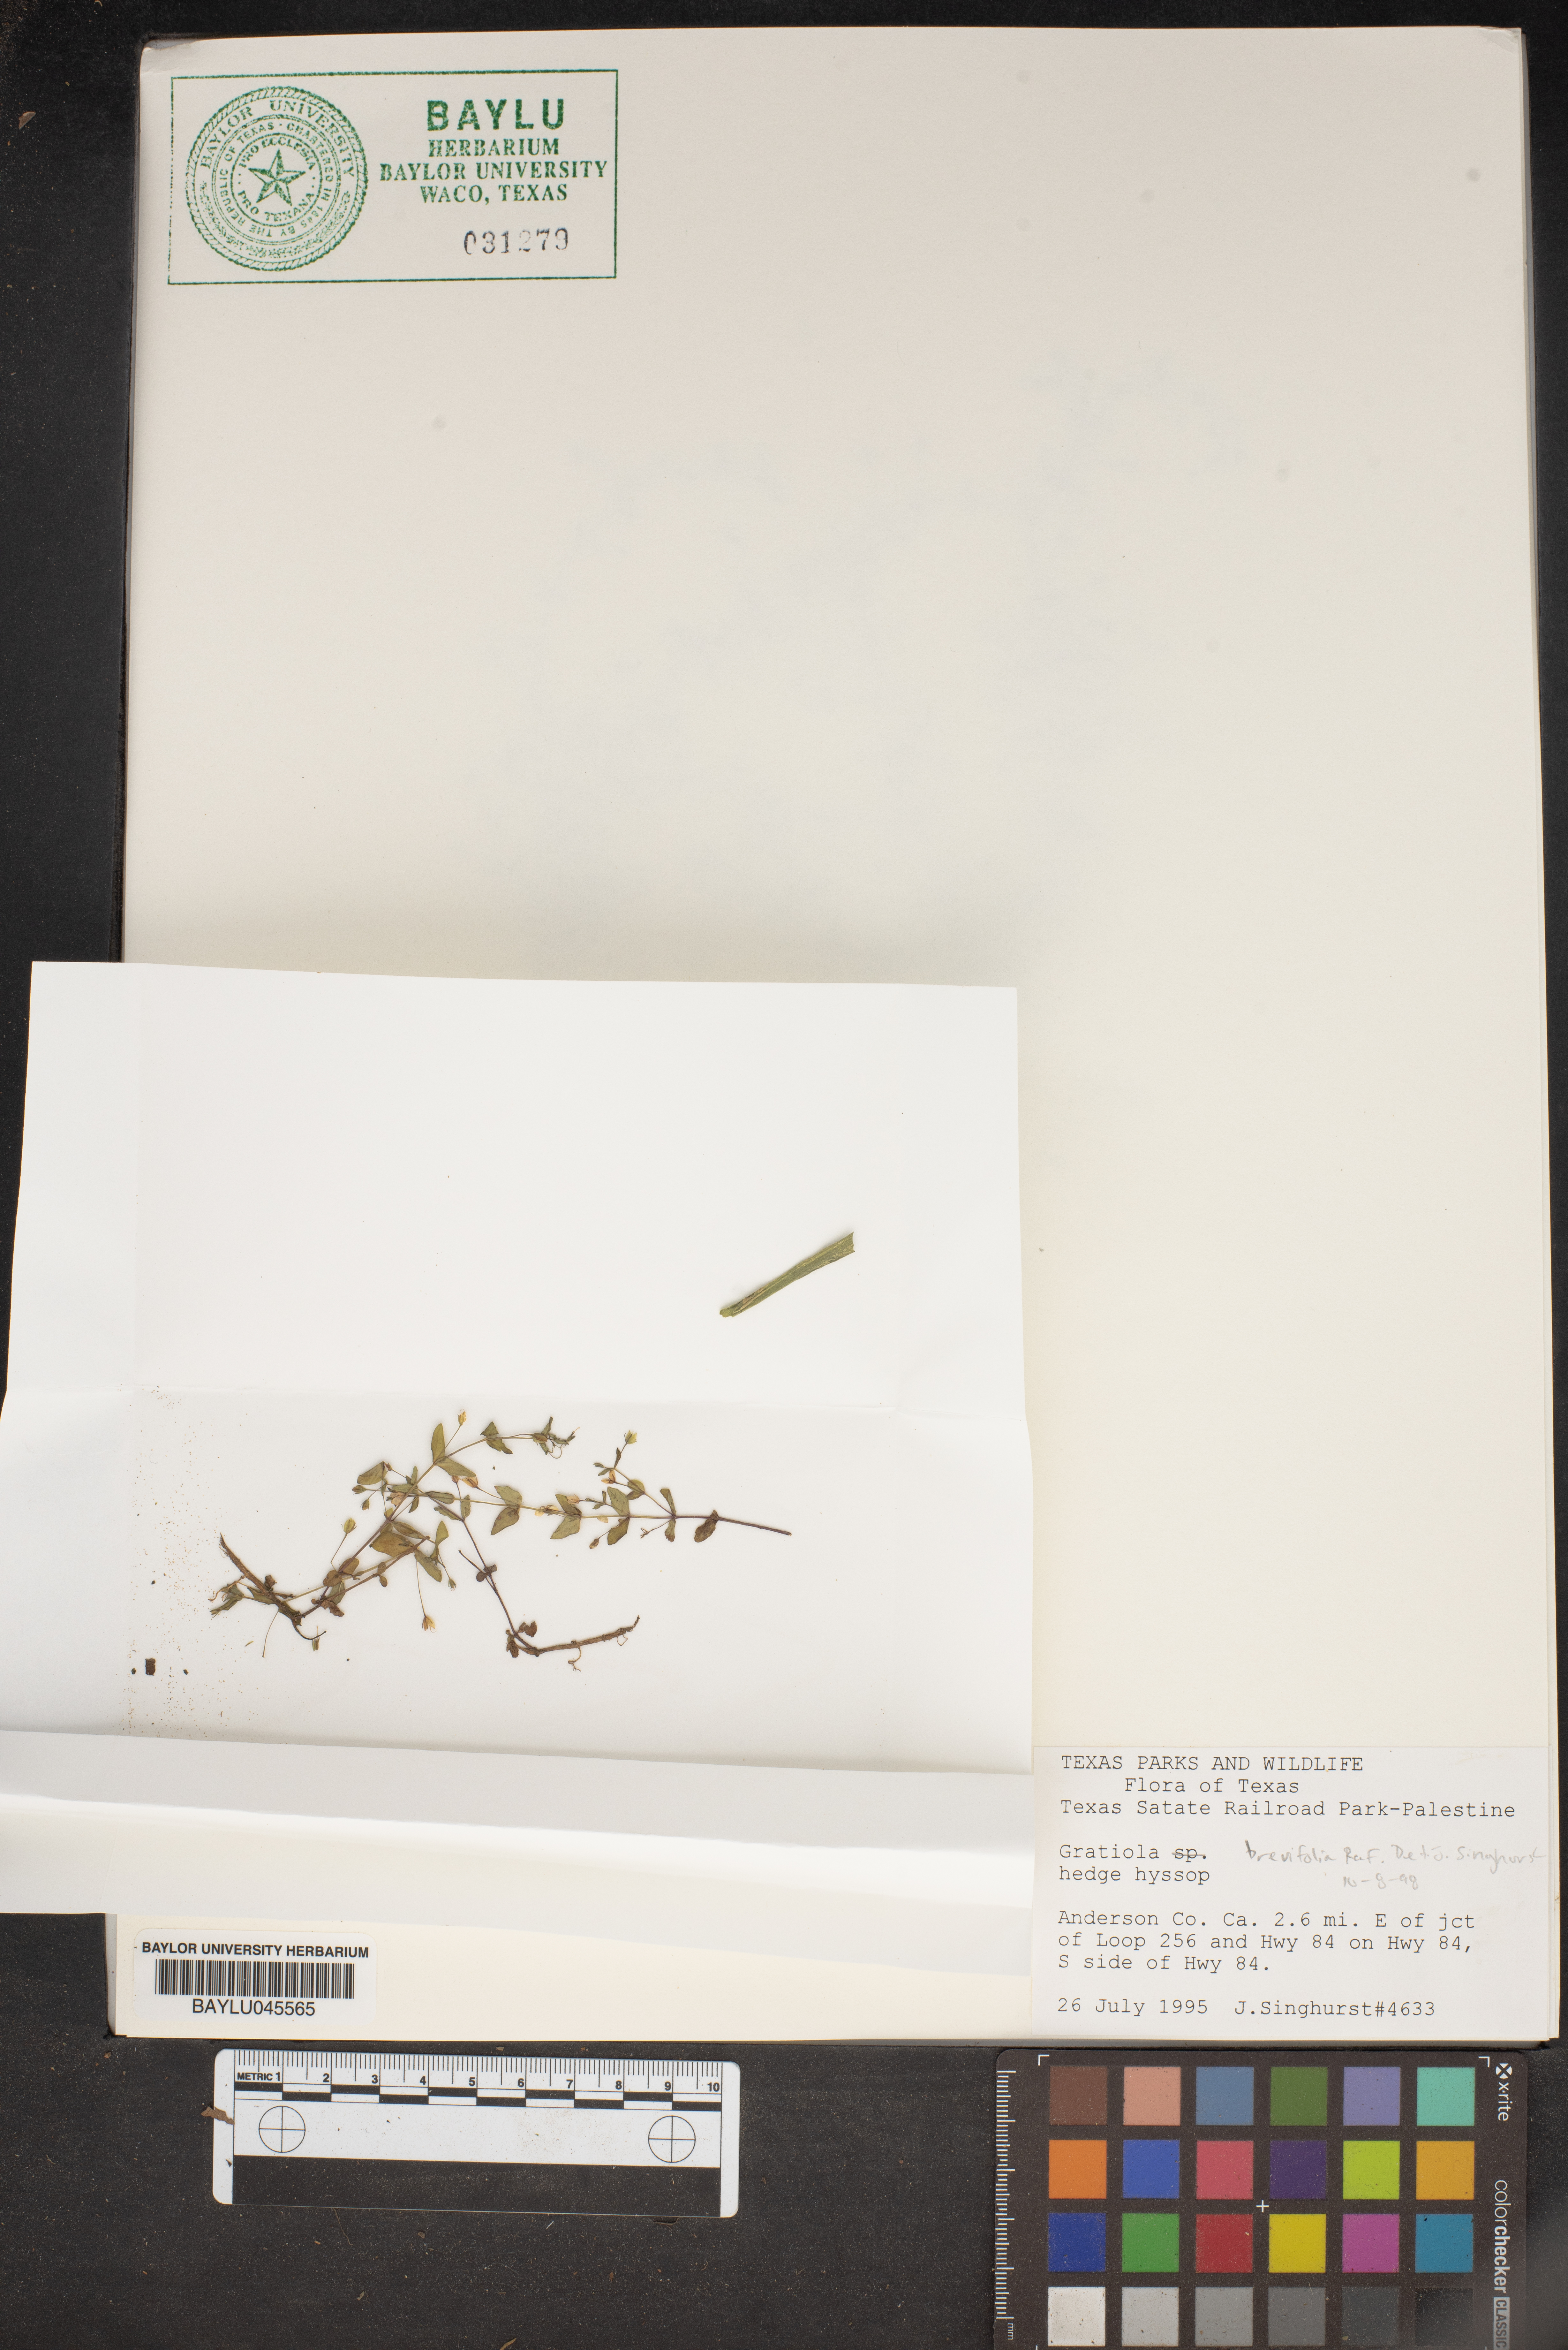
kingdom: Plantae
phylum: Tracheophyta
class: Magnoliopsida
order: Lamiales
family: Plantaginaceae
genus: Gratiola
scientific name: Gratiola brevifolia
